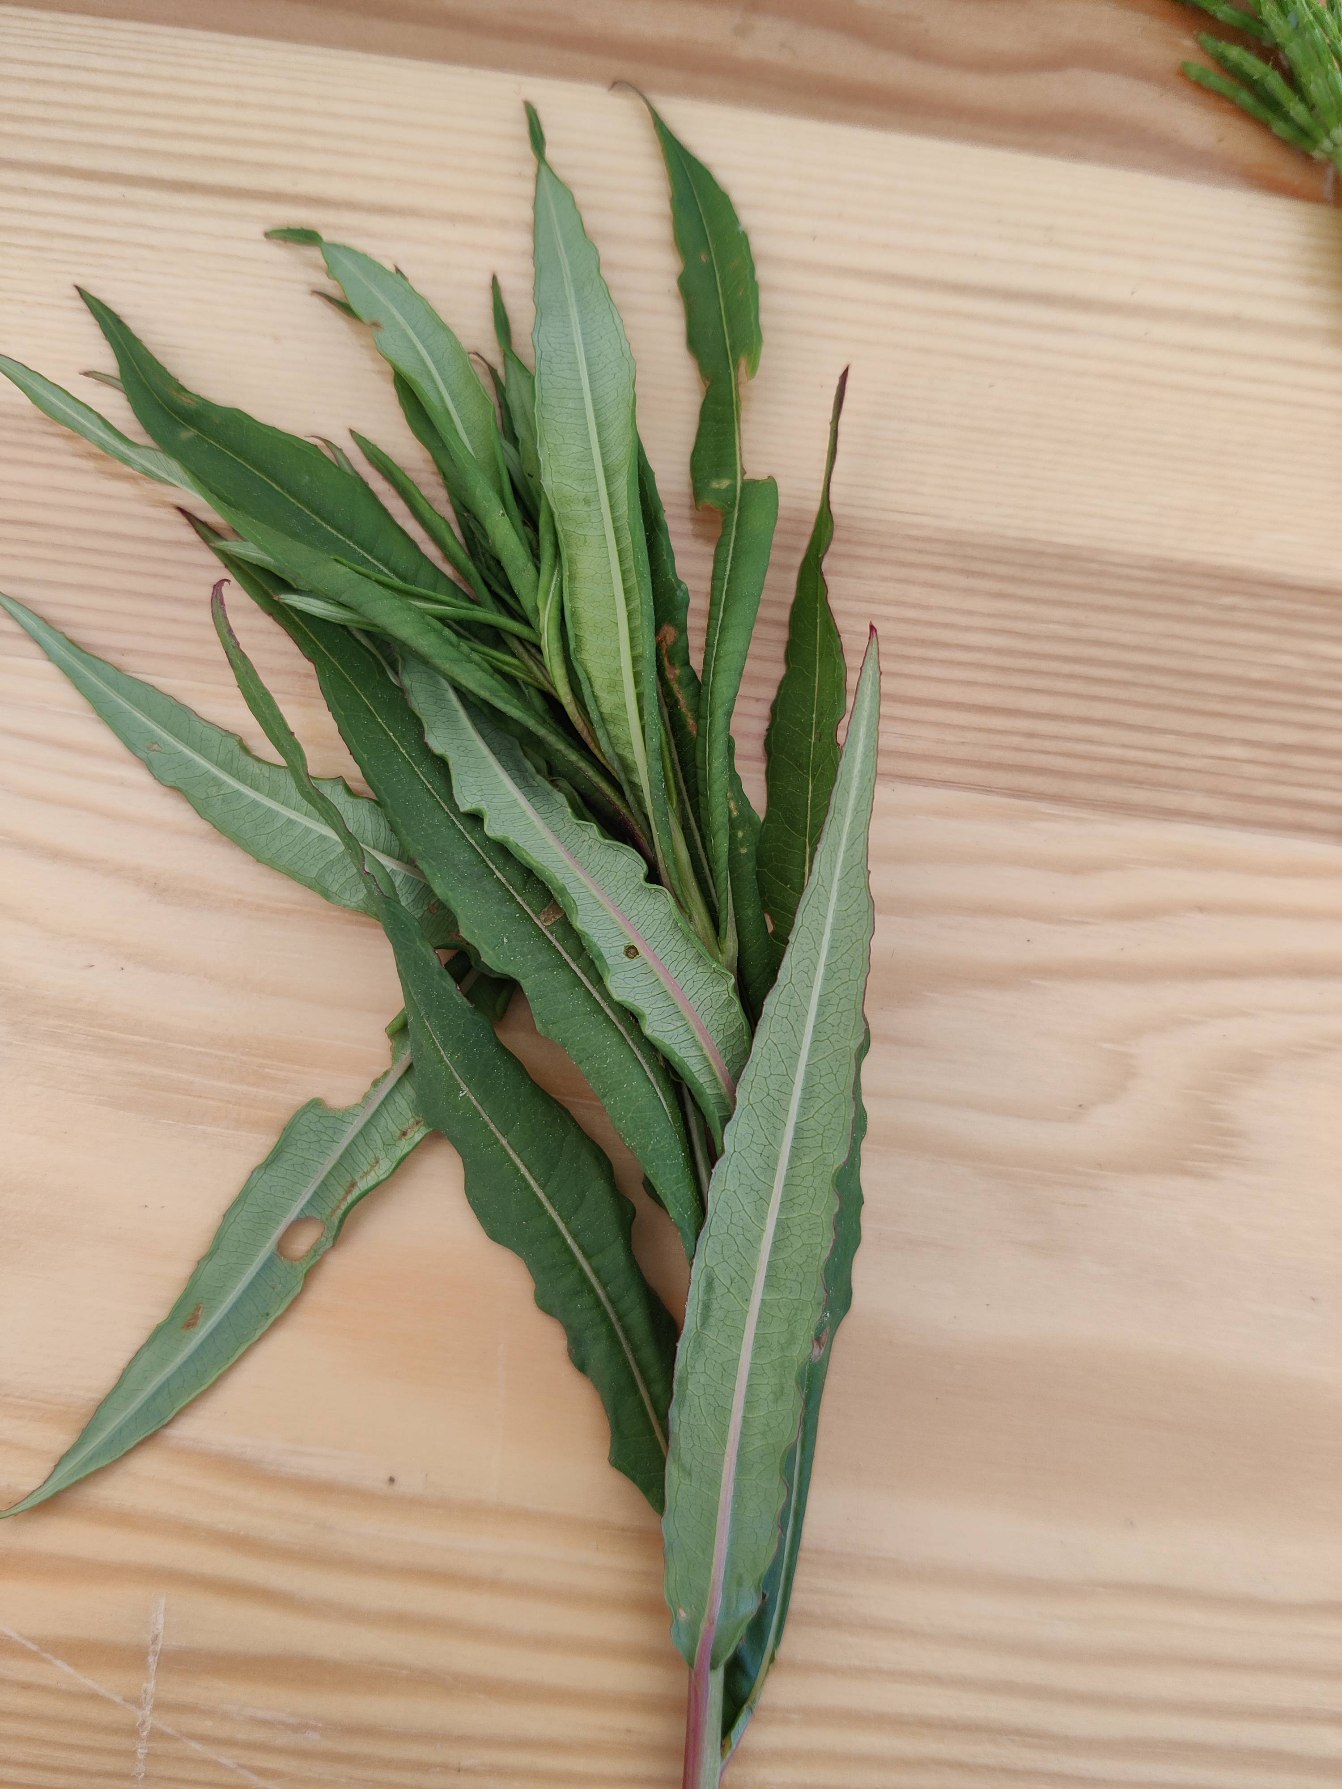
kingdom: Plantae
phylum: Tracheophyta
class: Magnoliopsida
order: Myrtales
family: Onagraceae
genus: Chamaenerion
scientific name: Chamaenerion angustifolium
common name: Gederams
